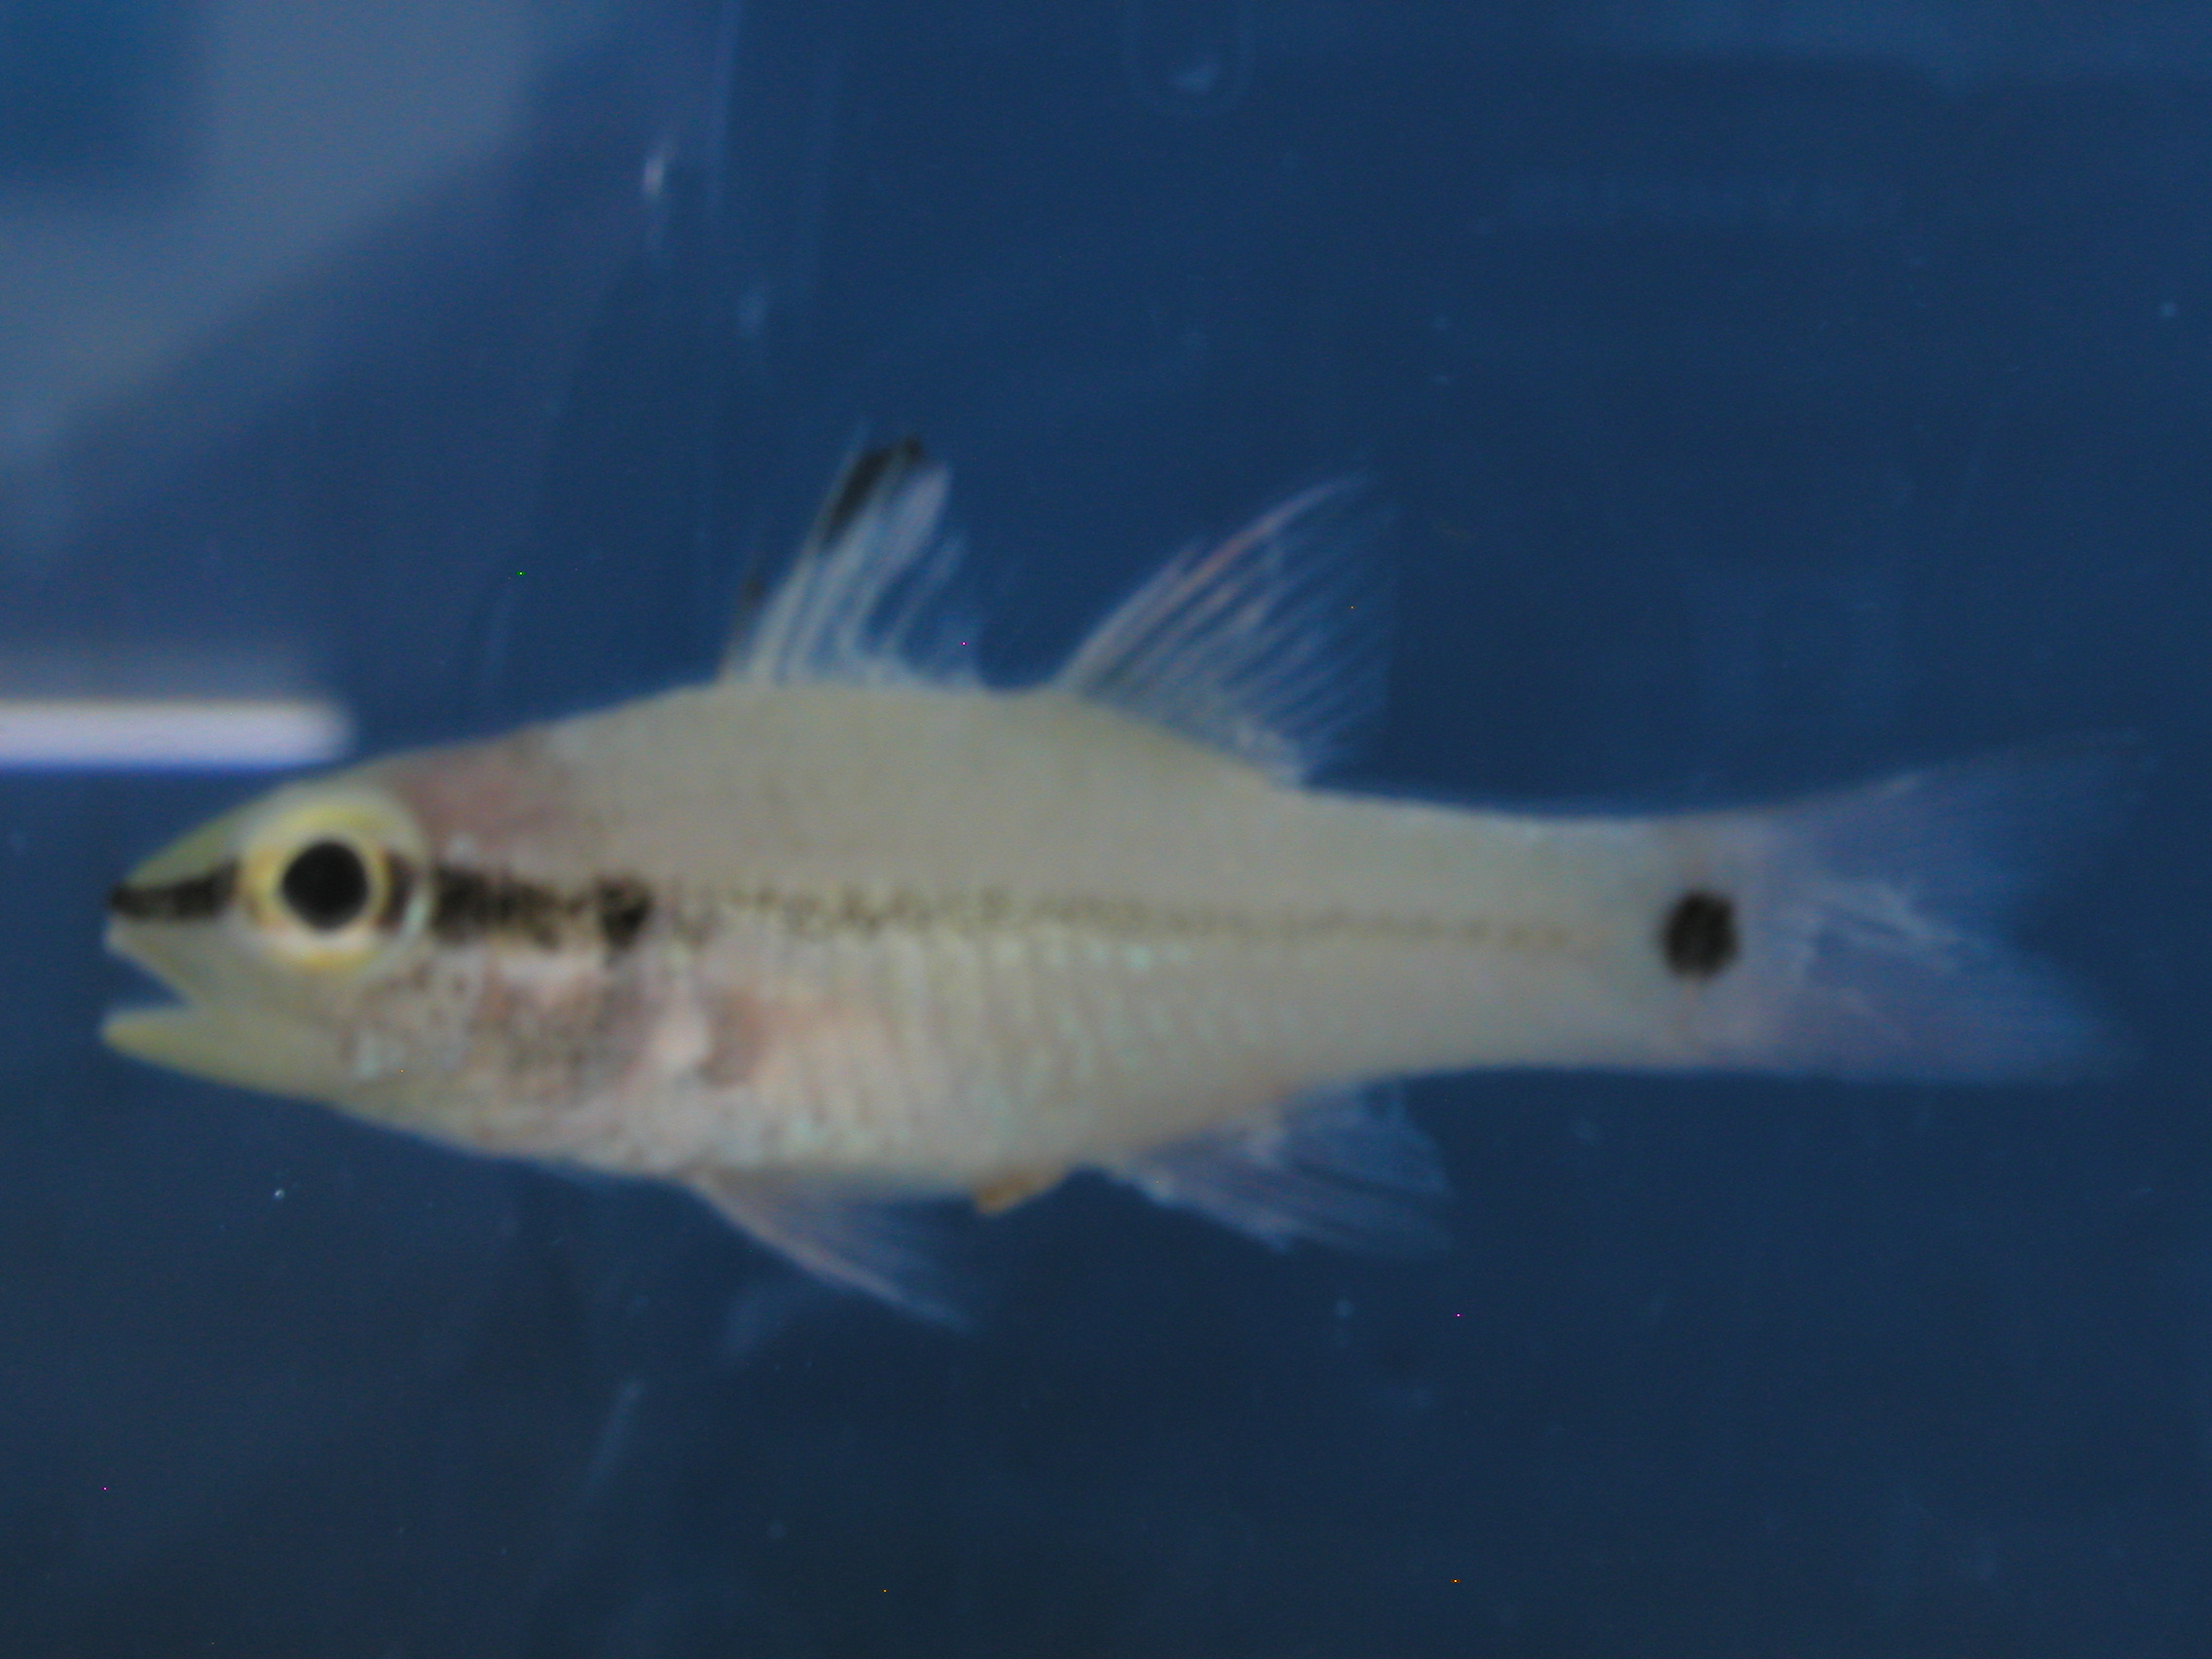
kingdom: Animalia
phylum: Chordata
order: Perciformes
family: Apogonidae
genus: Pristiapogon
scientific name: Pristiapogon fraenatus
